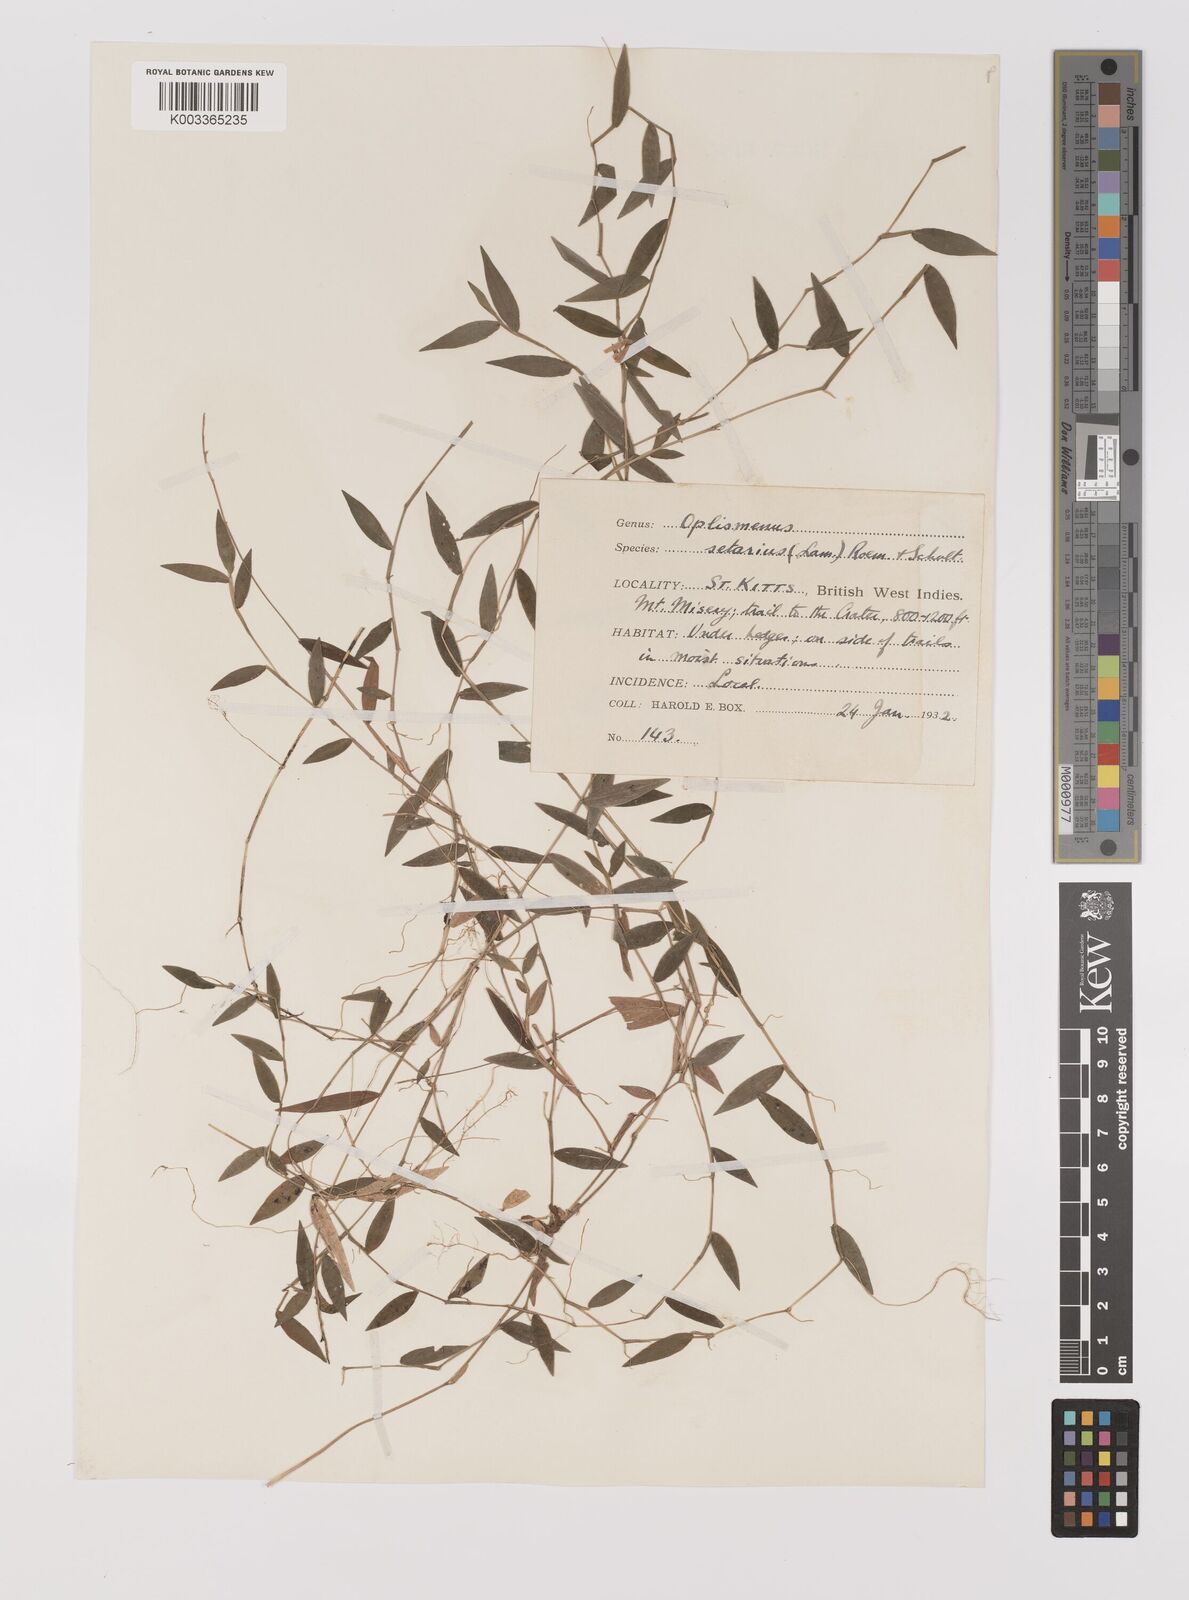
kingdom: Plantae
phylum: Tracheophyta
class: Liliopsida
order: Poales
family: Poaceae
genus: Oplismenus
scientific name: Oplismenus hirtellus
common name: Basketgrass
